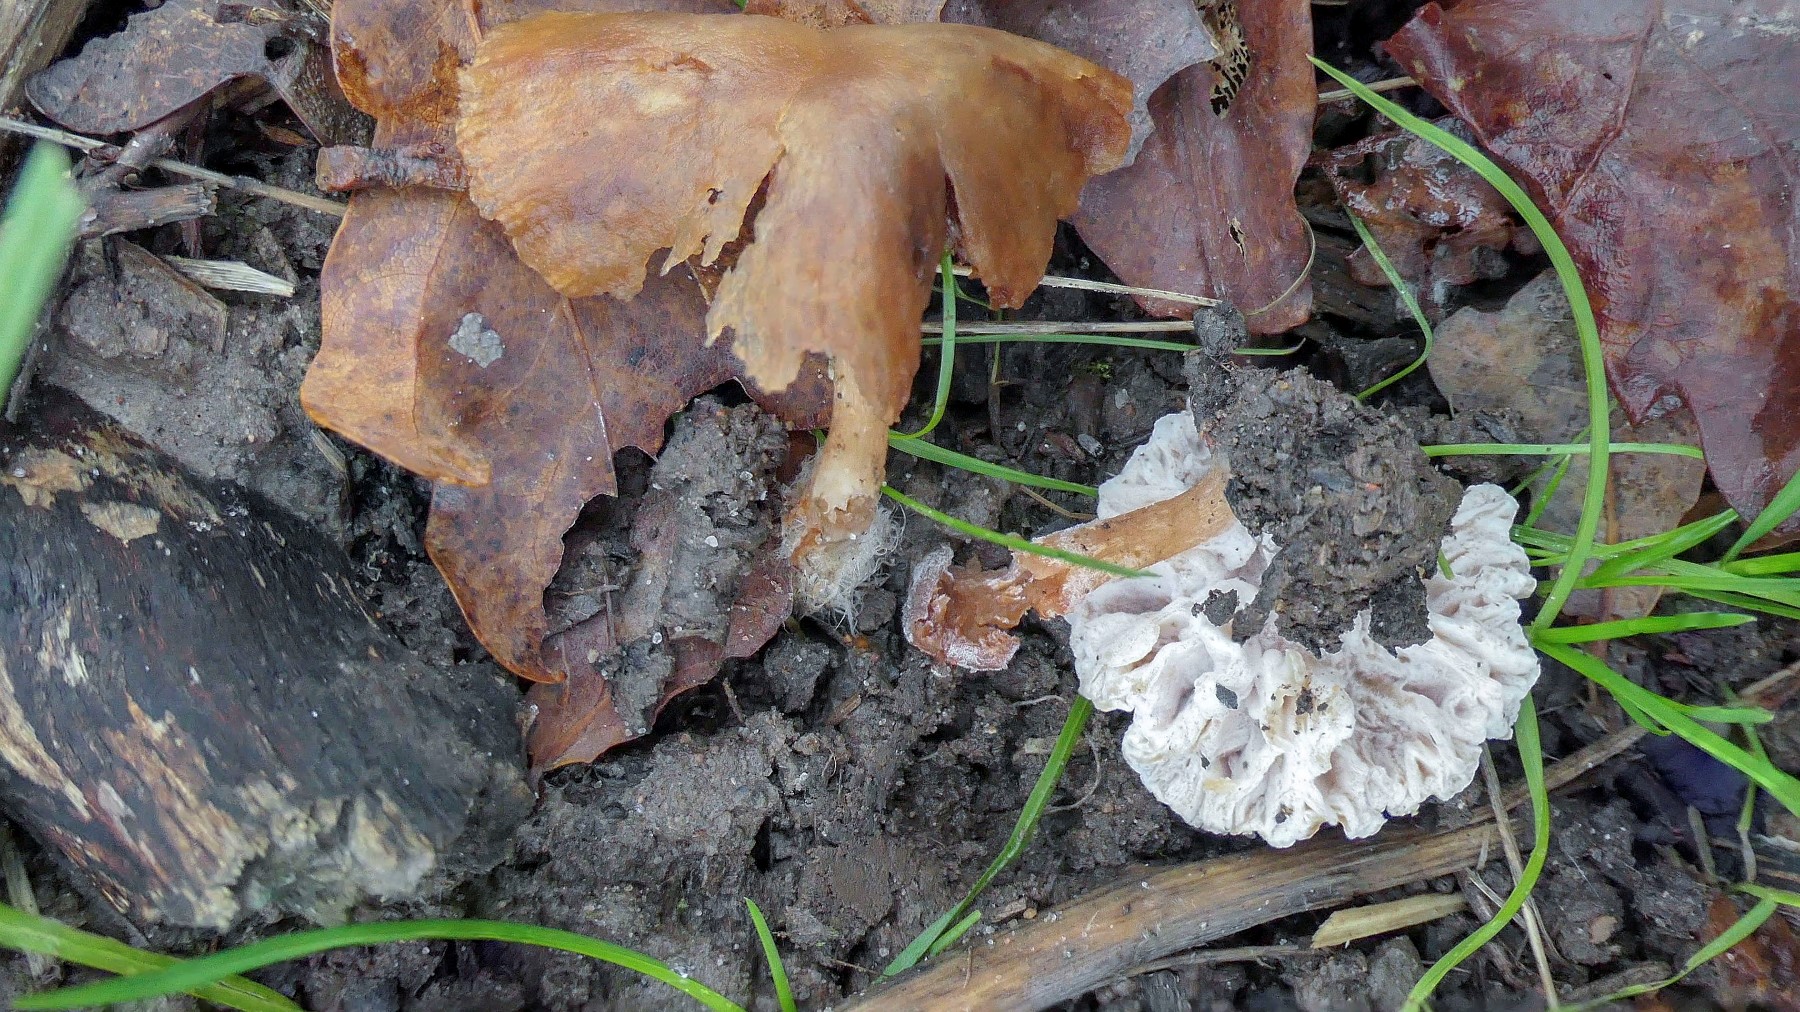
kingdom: Fungi
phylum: Ascomycota
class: Sordariomycetes
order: Hypocreales
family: Hypocreaceae
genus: Hypomyces
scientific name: Hypomyces tubariicola
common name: fnughat-snylteskorpe
